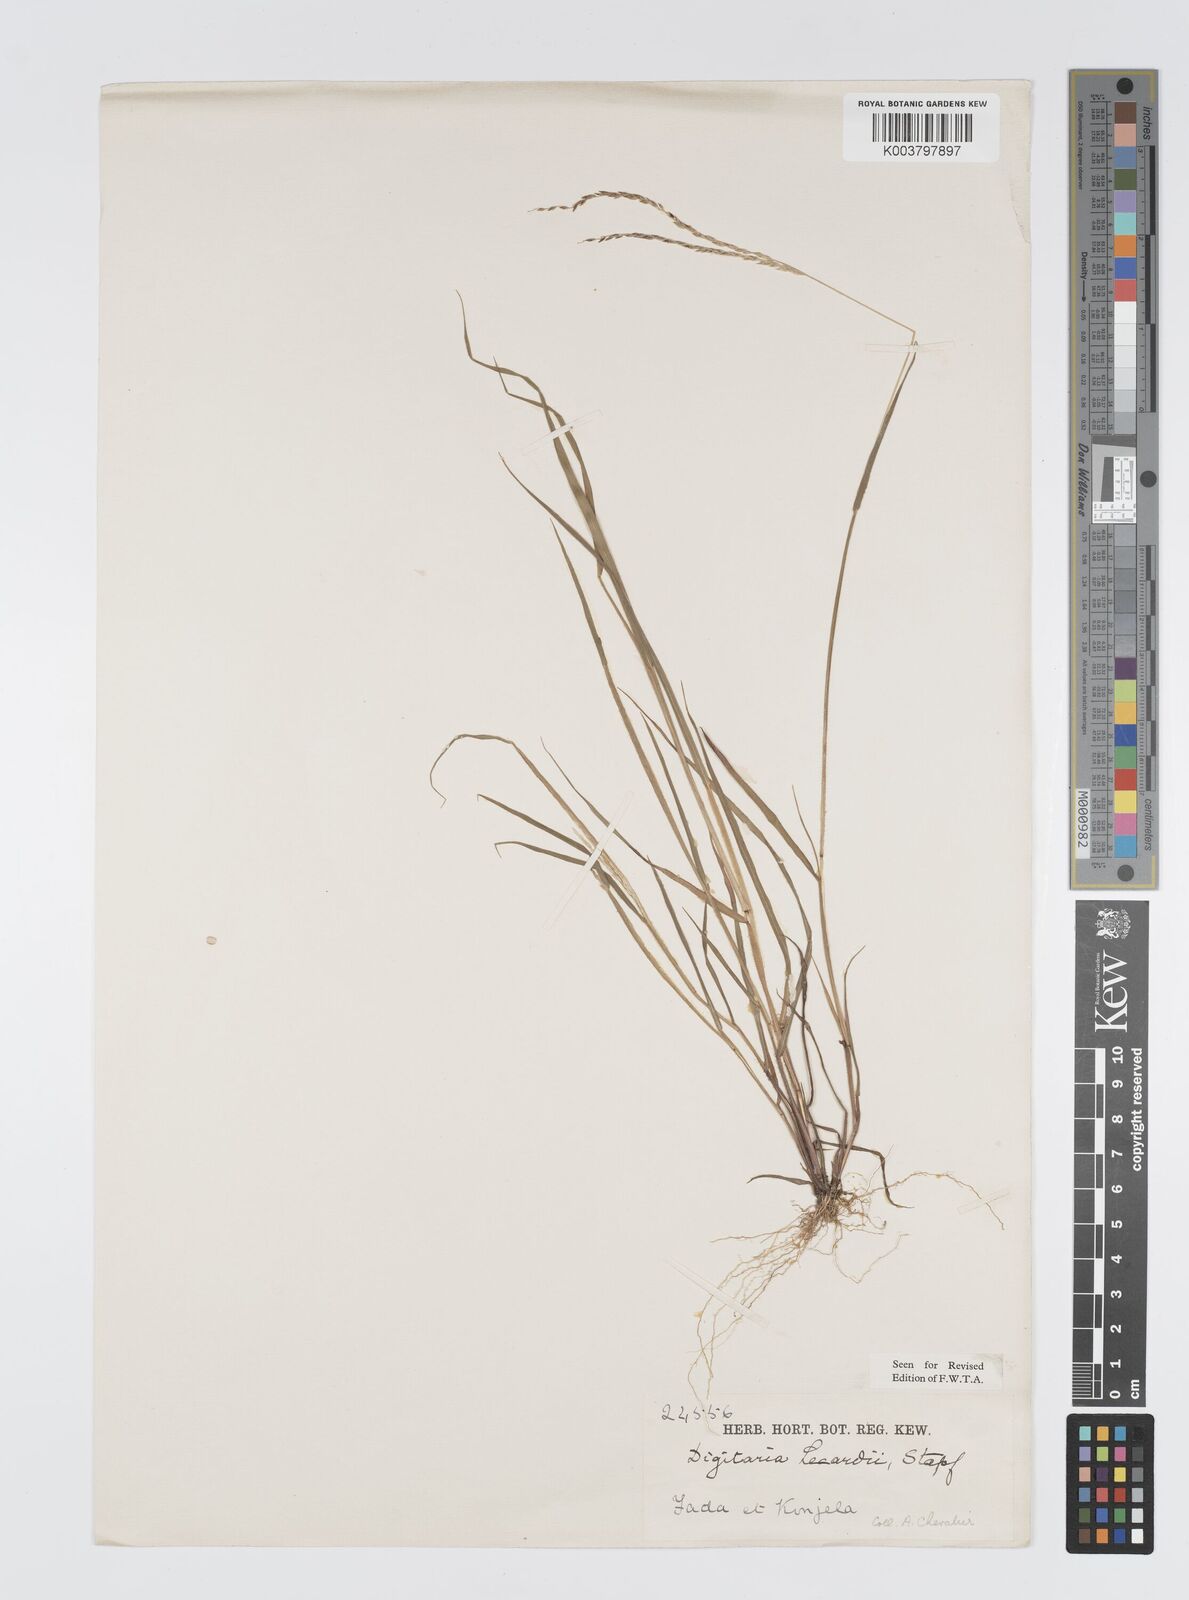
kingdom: Plantae
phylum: Tracheophyta
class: Liliopsida
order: Poales
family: Poaceae
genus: Digitaria
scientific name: Digitaria argillacea
